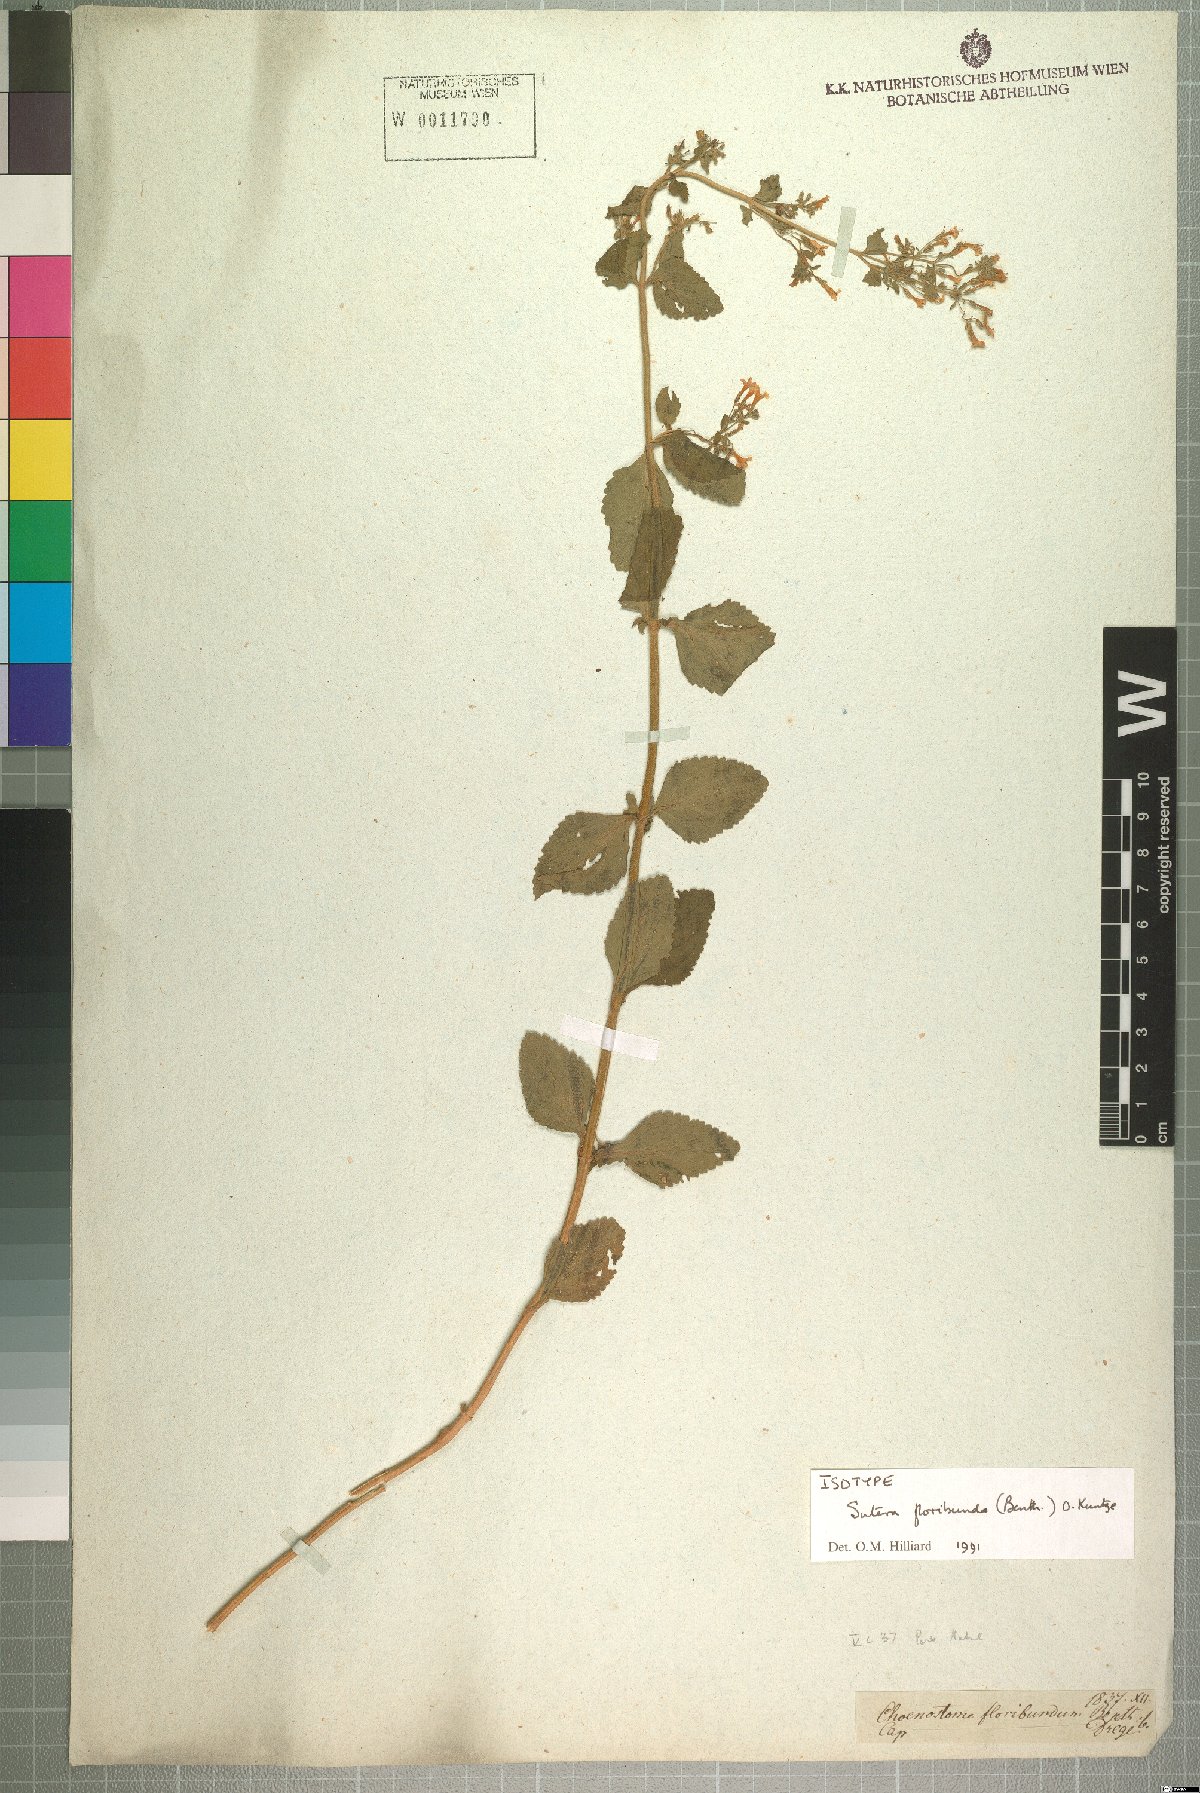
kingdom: Plantae
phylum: Tracheophyta
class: Magnoliopsida
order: Lamiales
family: Scrophulariaceae
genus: Chaenostoma
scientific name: Chaenostoma floribundum
